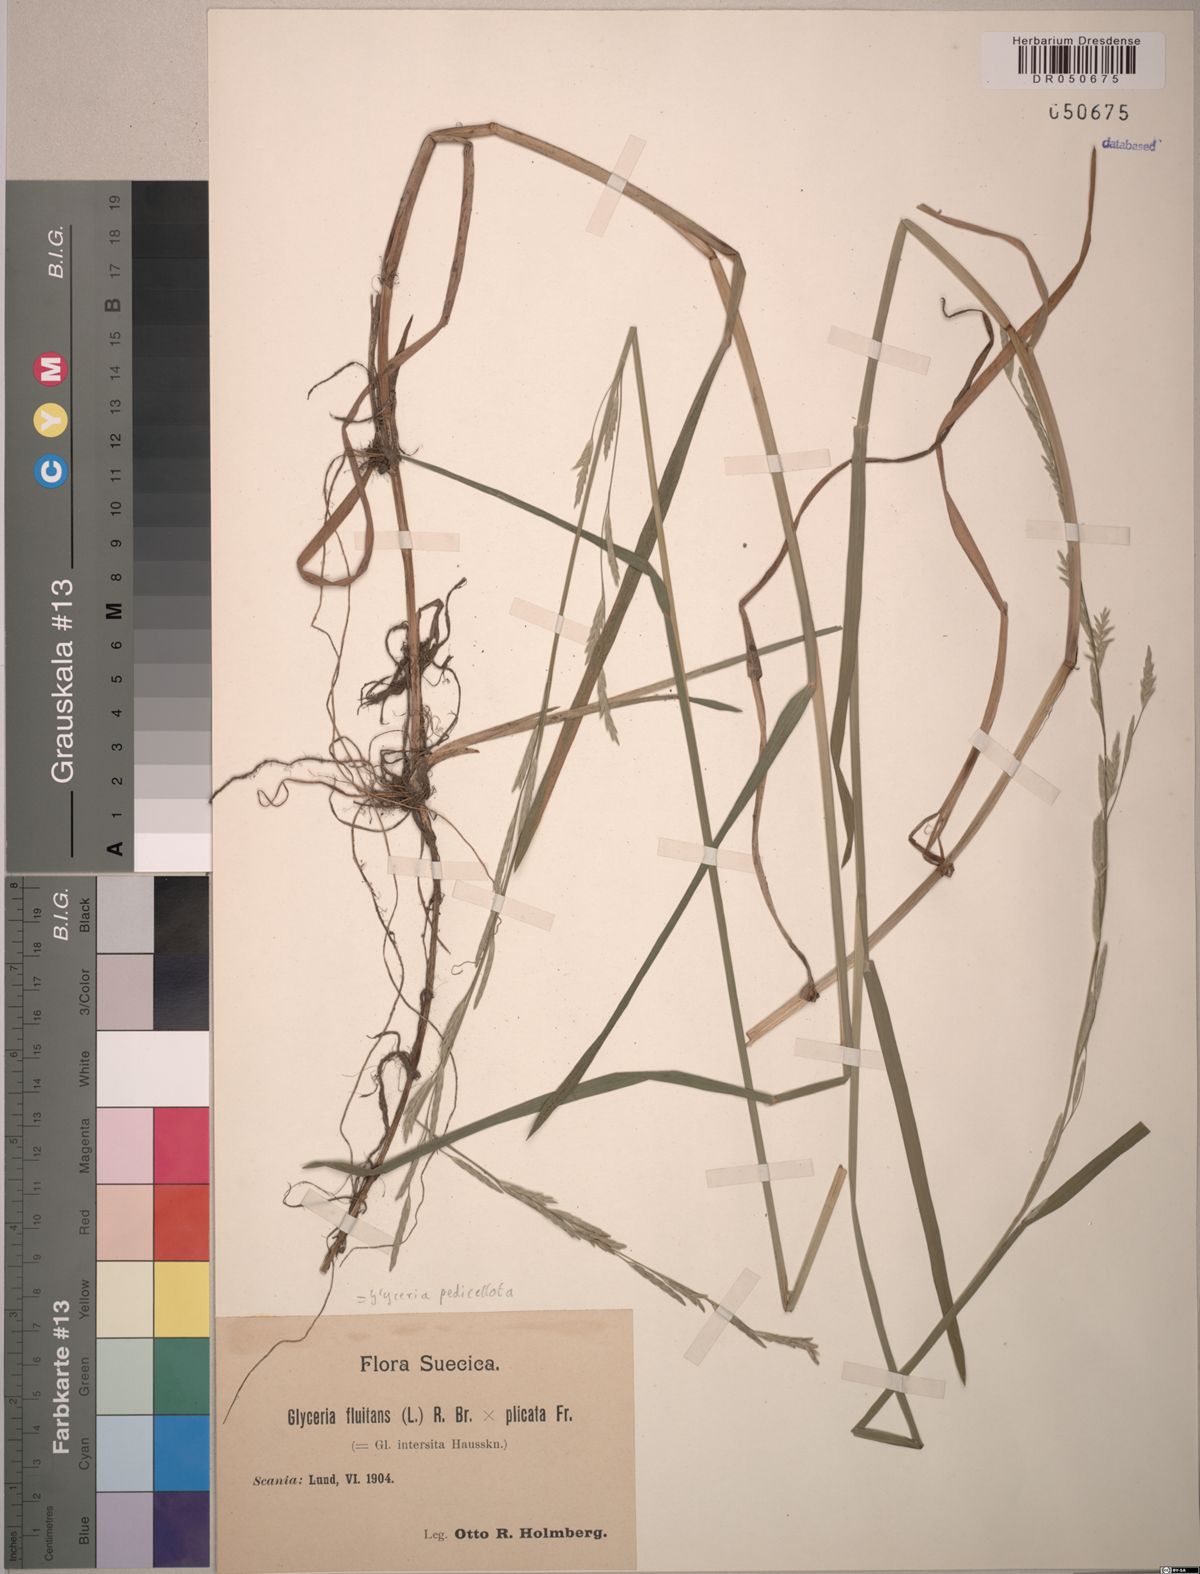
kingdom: Plantae
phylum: Tracheophyta
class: Liliopsida
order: Poales
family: Poaceae
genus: Glyceria
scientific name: Glyceria pedicellata
